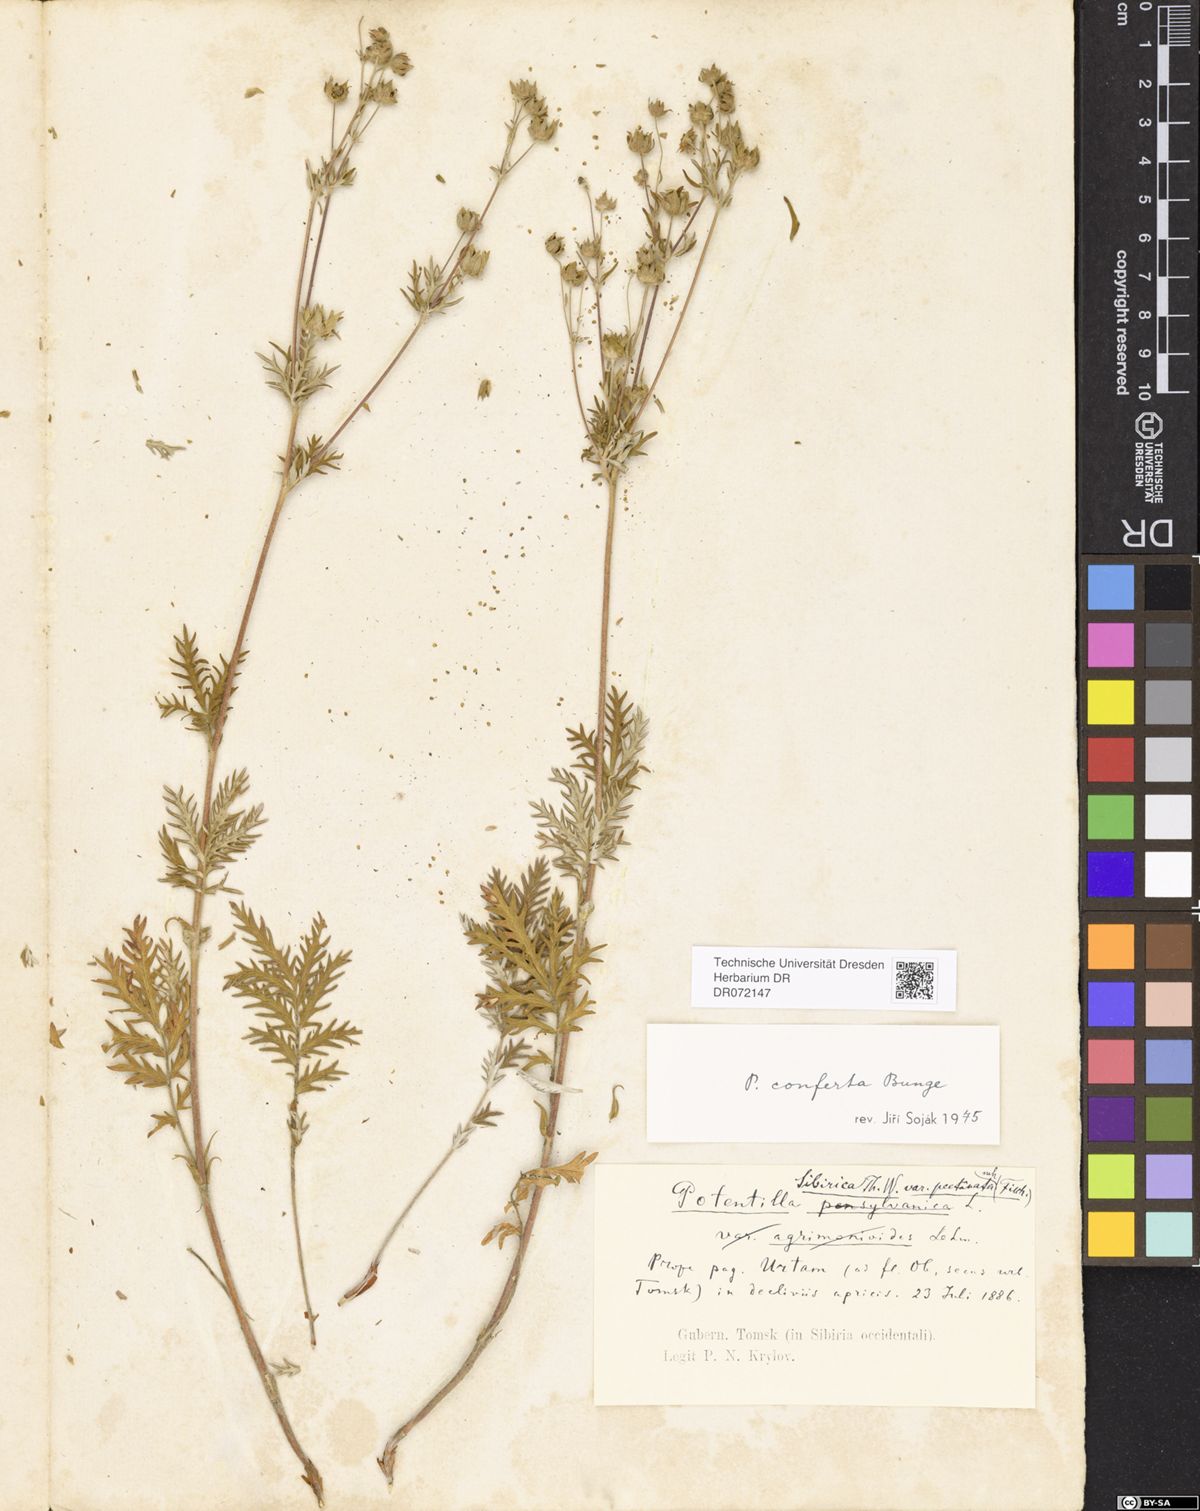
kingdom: Plantae
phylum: Tracheophyta
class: Magnoliopsida
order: Rosales
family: Rosaceae
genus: Potentilla
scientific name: Potentilla conferta
